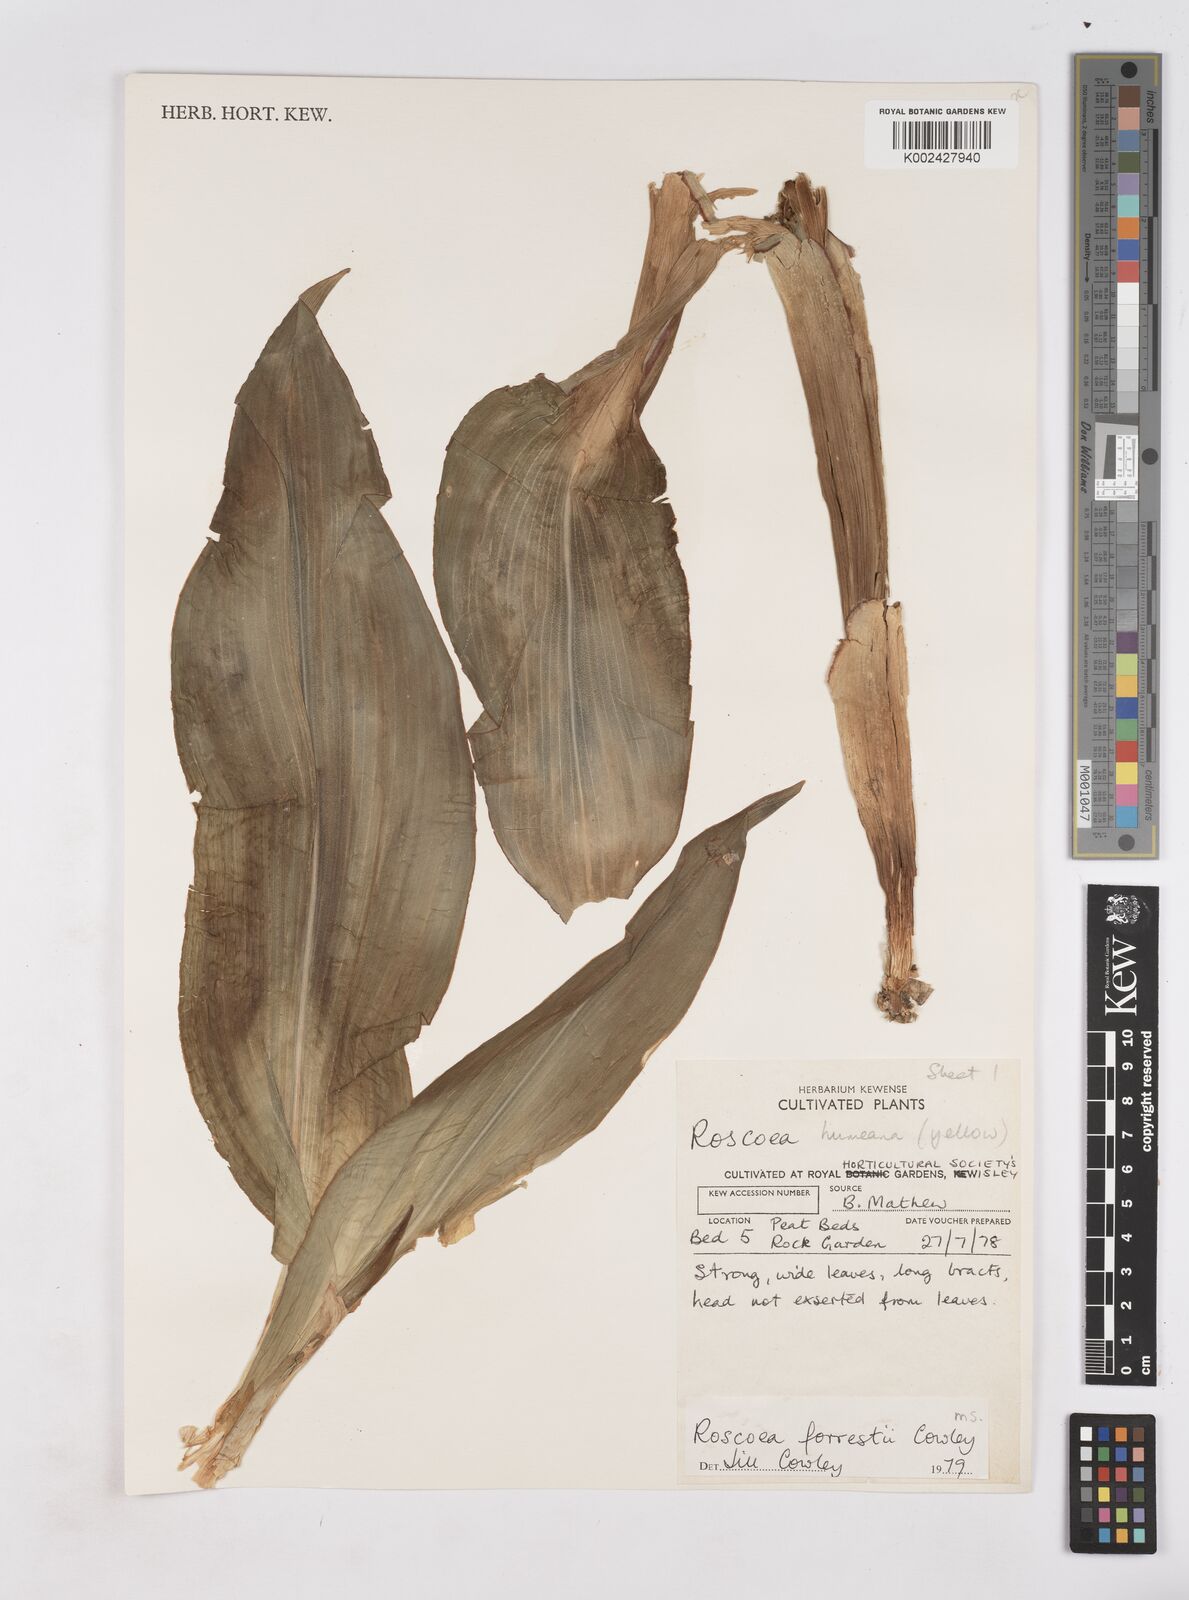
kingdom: Plantae
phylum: Tracheophyta
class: Liliopsida
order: Zingiberales
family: Zingiberaceae
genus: Roscoea
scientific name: Roscoea forrestii
